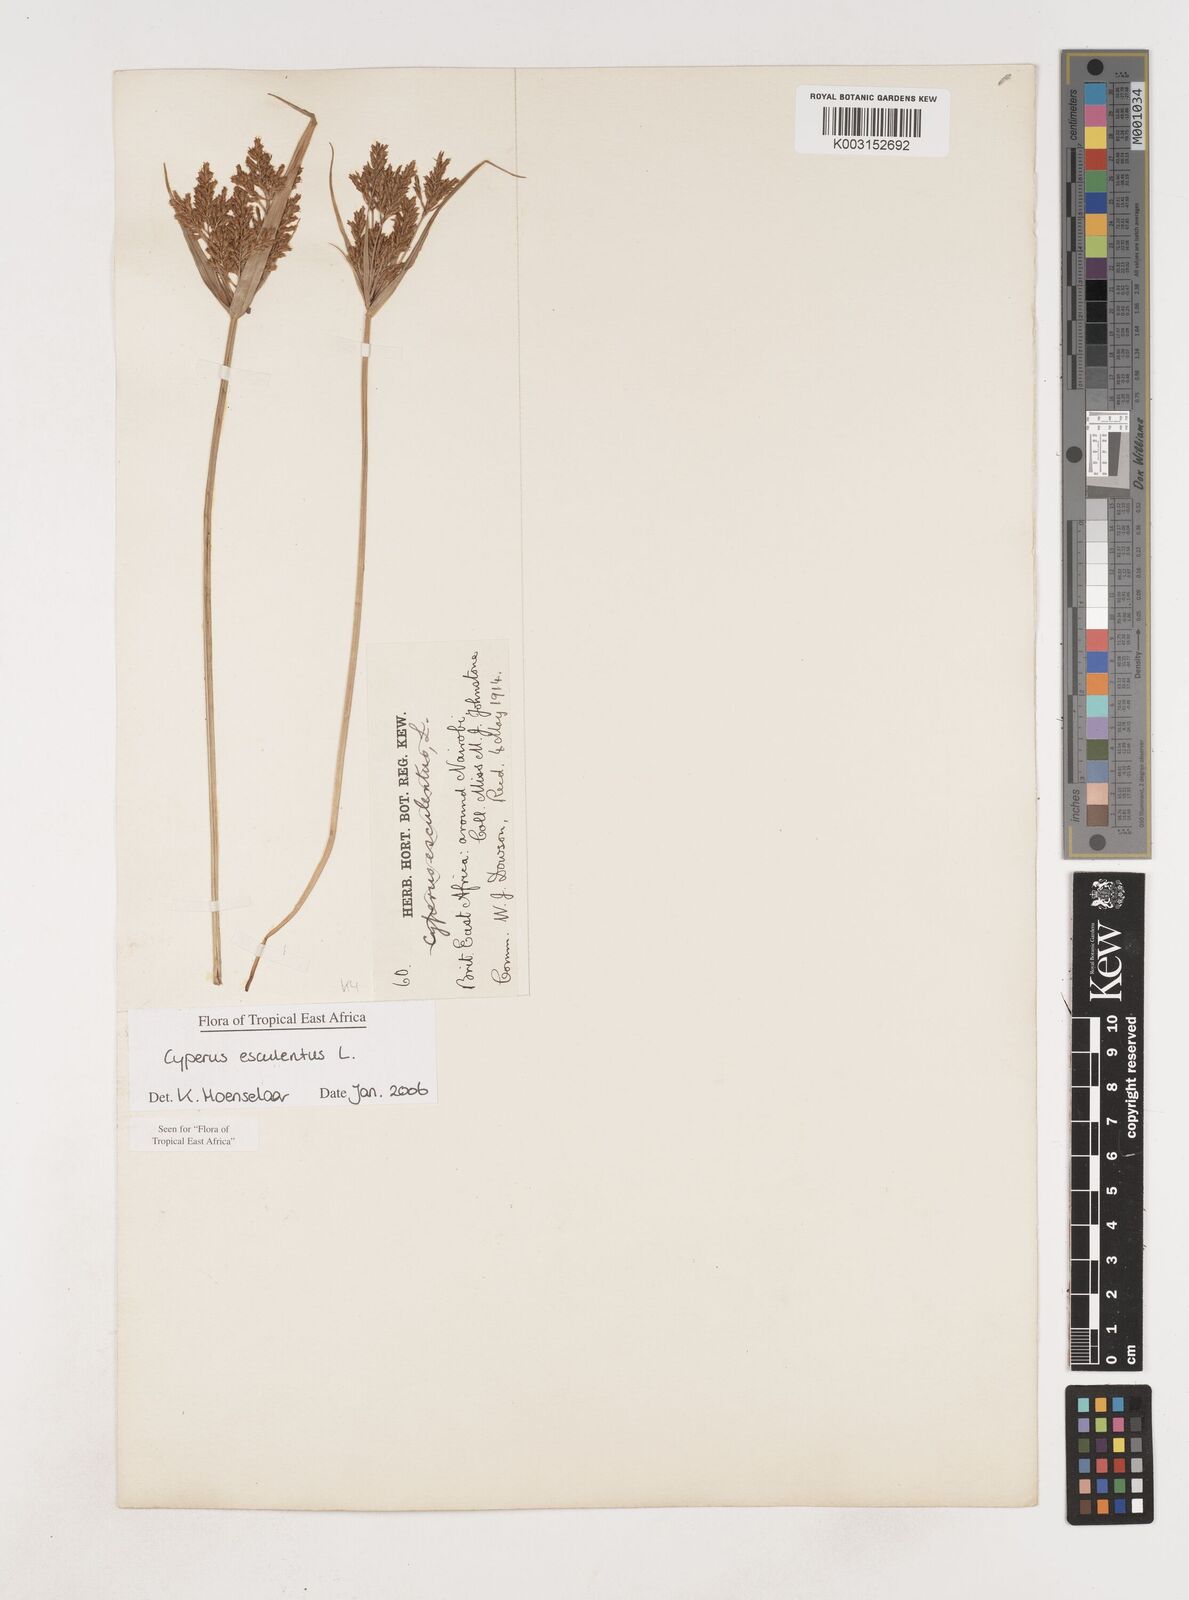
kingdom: Plantae
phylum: Tracheophyta
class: Liliopsida
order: Poales
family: Cyperaceae
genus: Cyperus
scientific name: Cyperus esculentus
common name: Yellow nutsedge
